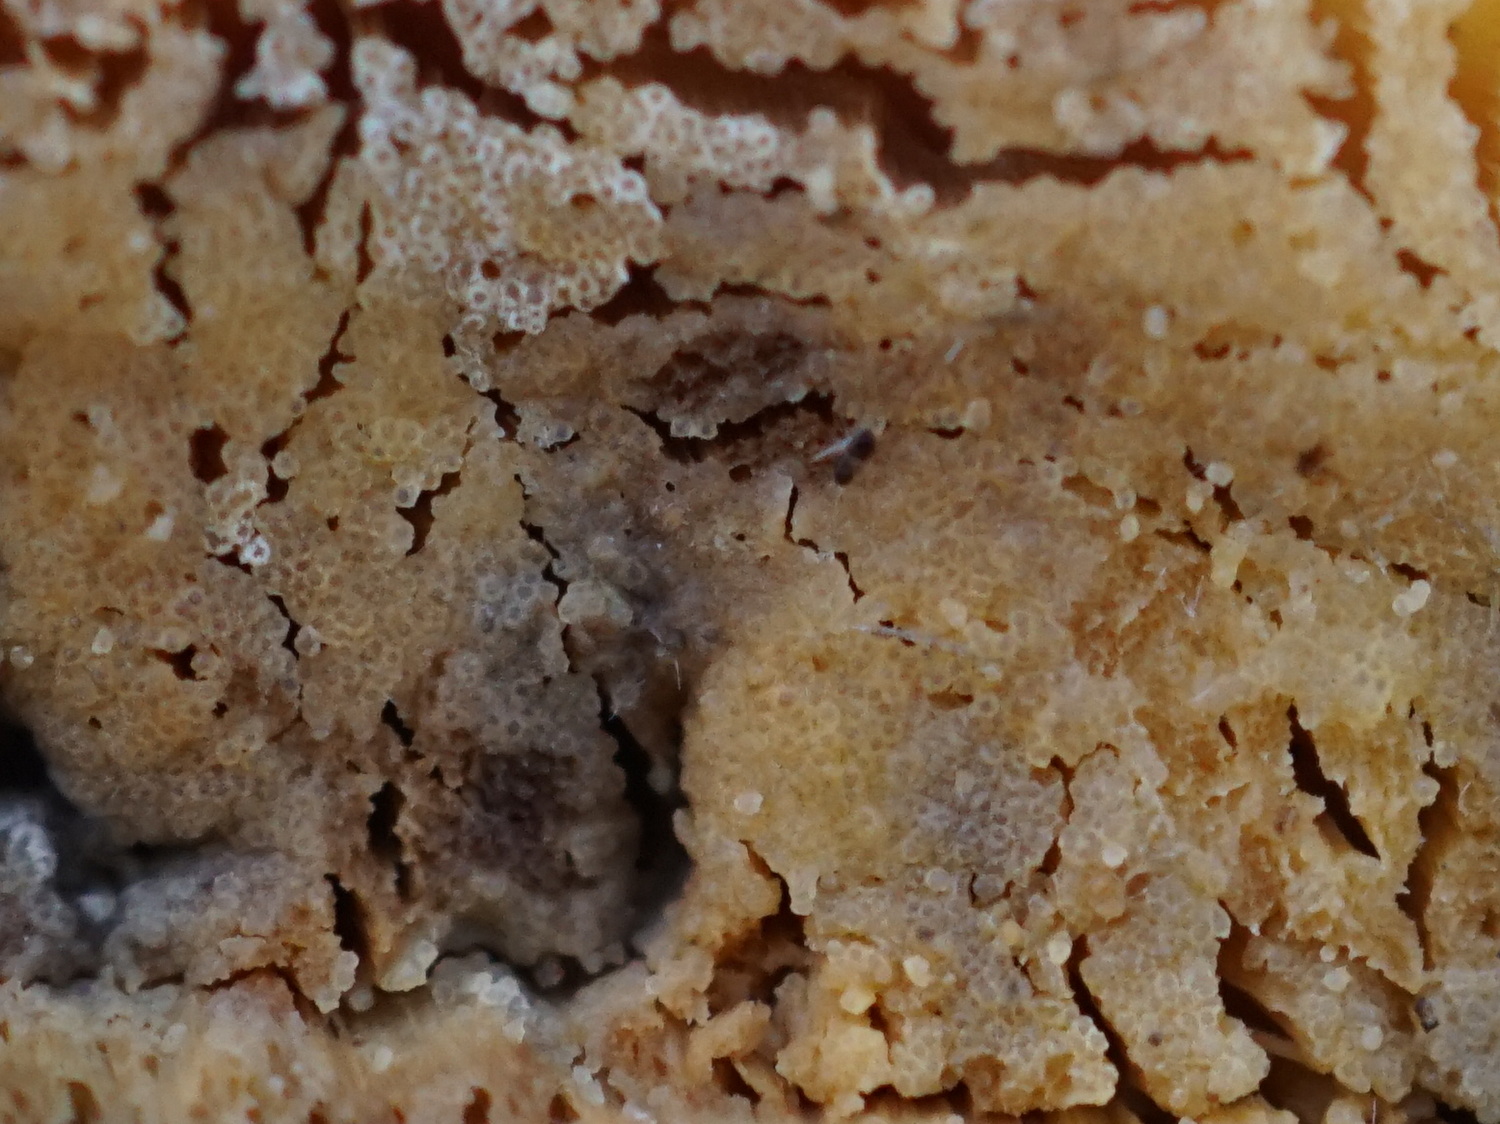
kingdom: Fungi
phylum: Ascomycota
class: Sordariomycetes
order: Hypocreales
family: Hypocreaceae
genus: Protocrea
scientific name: Protocrea farinosa
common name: krystalpore-kødkerne
